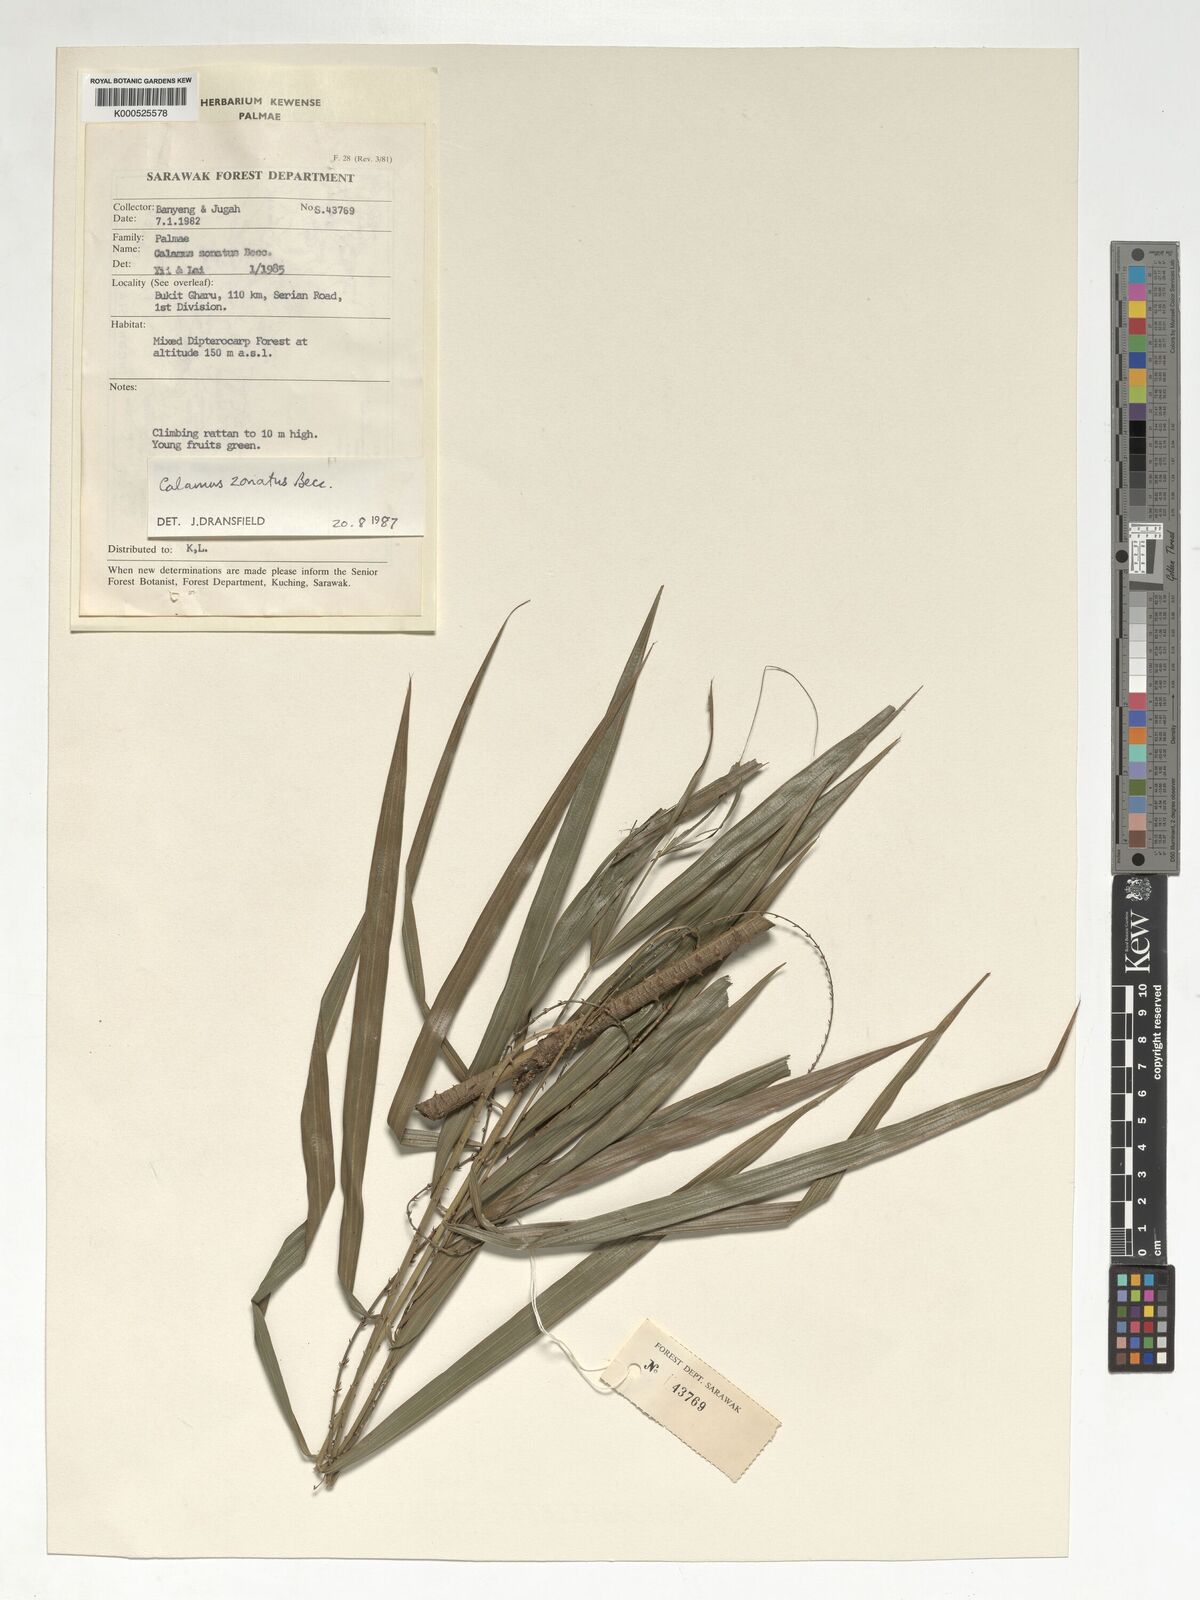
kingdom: Plantae
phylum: Tracheophyta
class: Liliopsida
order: Arecales
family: Arecaceae
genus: Calamus
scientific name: Calamus zonatus
